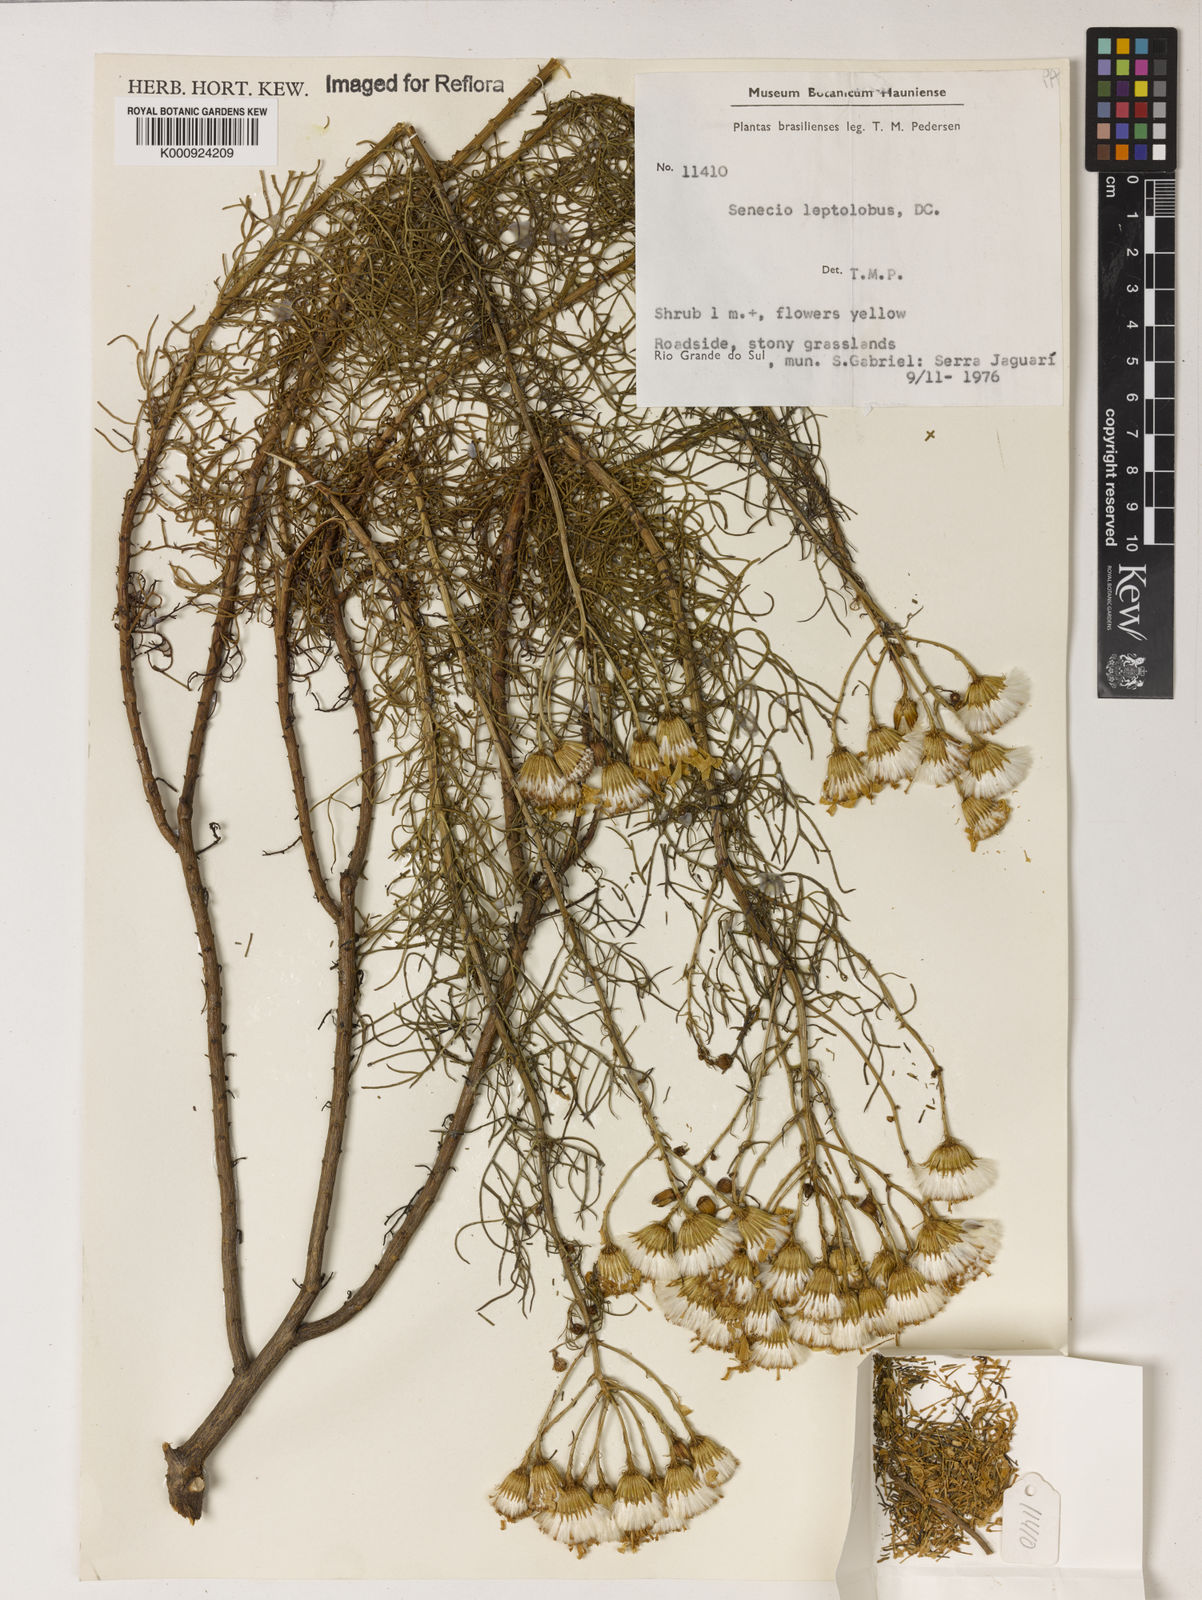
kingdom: Plantae
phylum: Tracheophyta
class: Magnoliopsida
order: Asterales
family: Asteraceae
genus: Senecio
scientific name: Senecio leptolobus
